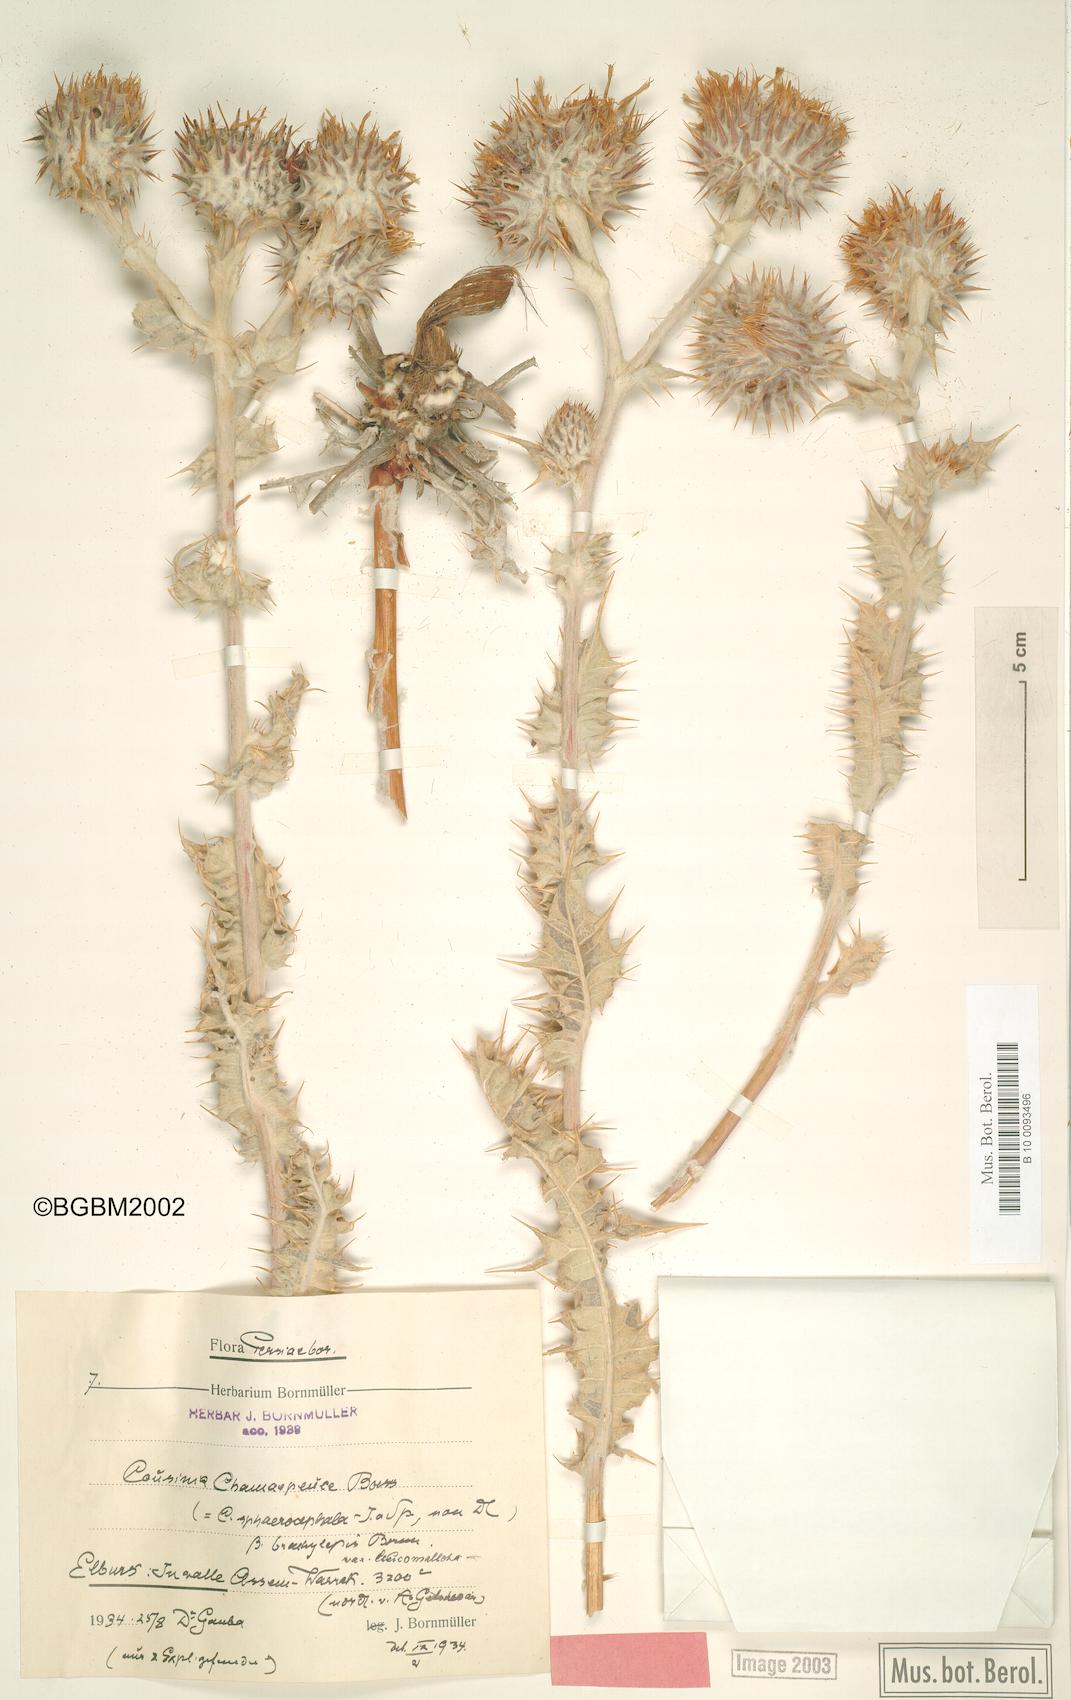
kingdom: Plantae
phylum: Tracheophyta
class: Magnoliopsida
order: Asterales
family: Asteraceae
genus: Cousinia
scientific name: Cousinia sphaerocephala
